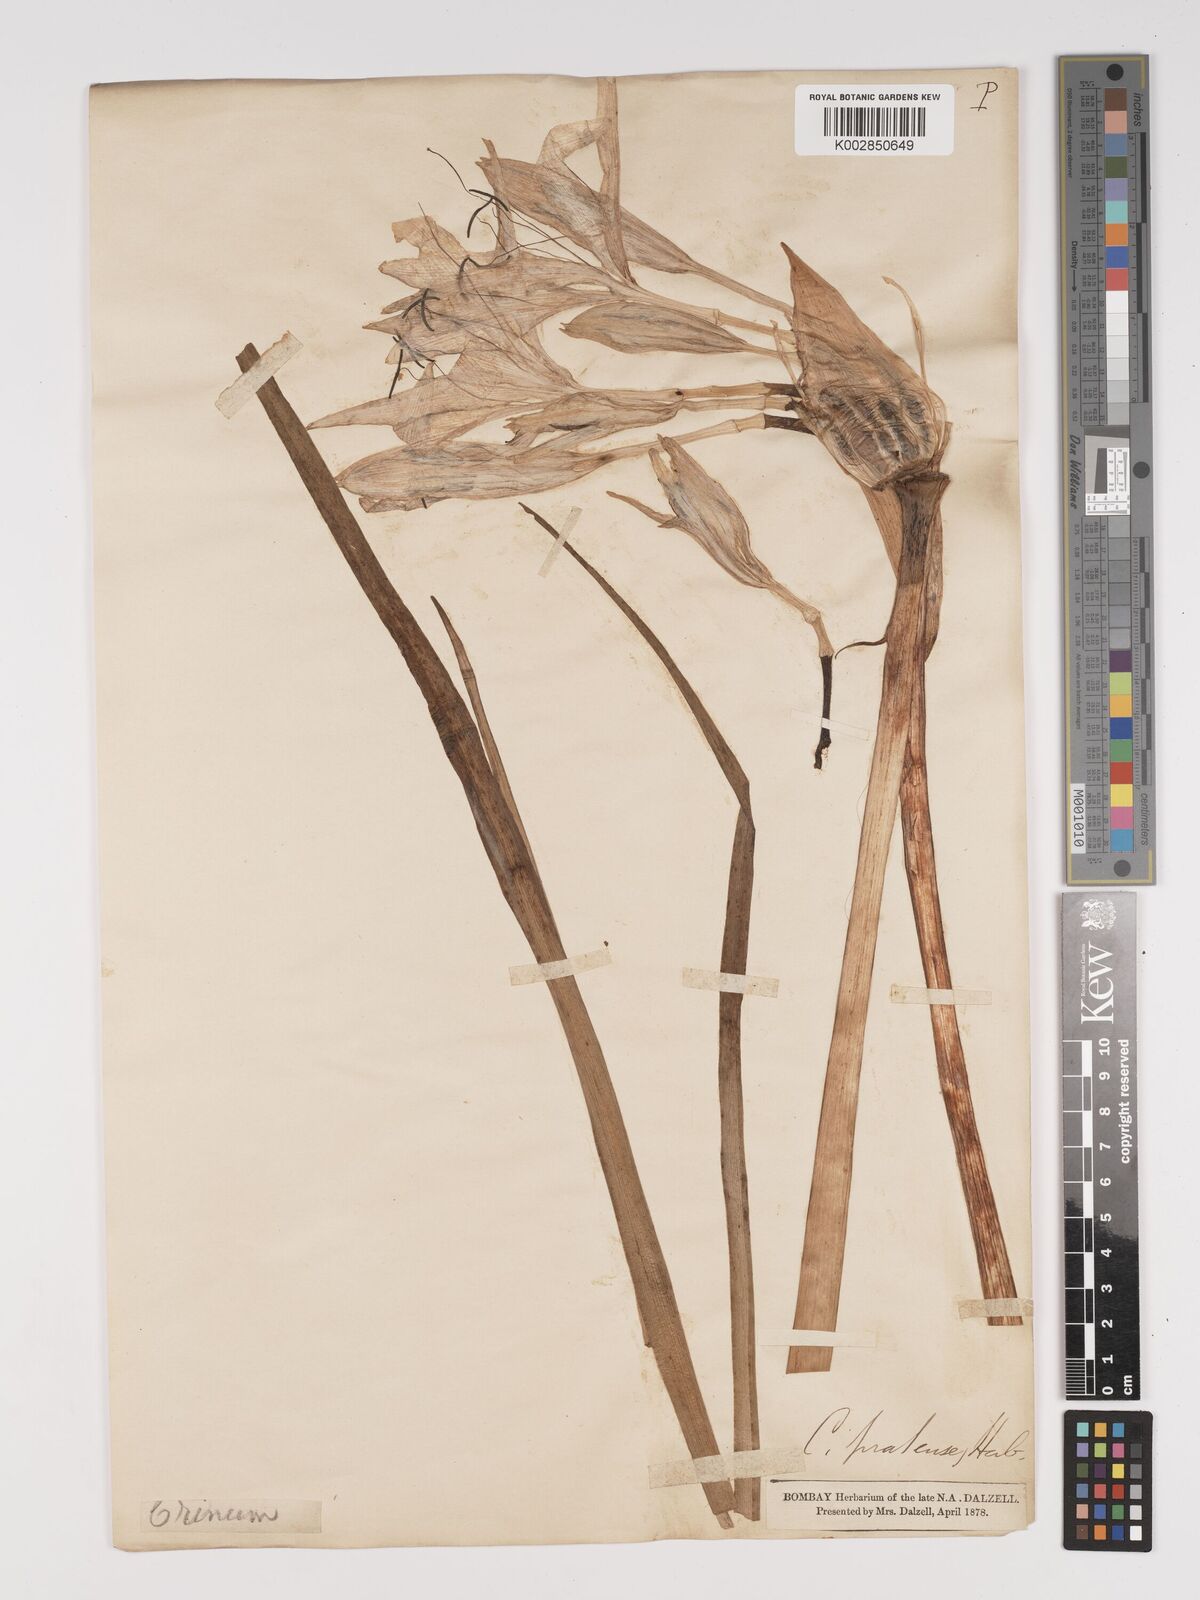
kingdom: Plantae
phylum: Tracheophyta
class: Liliopsida
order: Asparagales
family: Amaryllidaceae
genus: Crinum
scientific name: Crinum lorifolium
